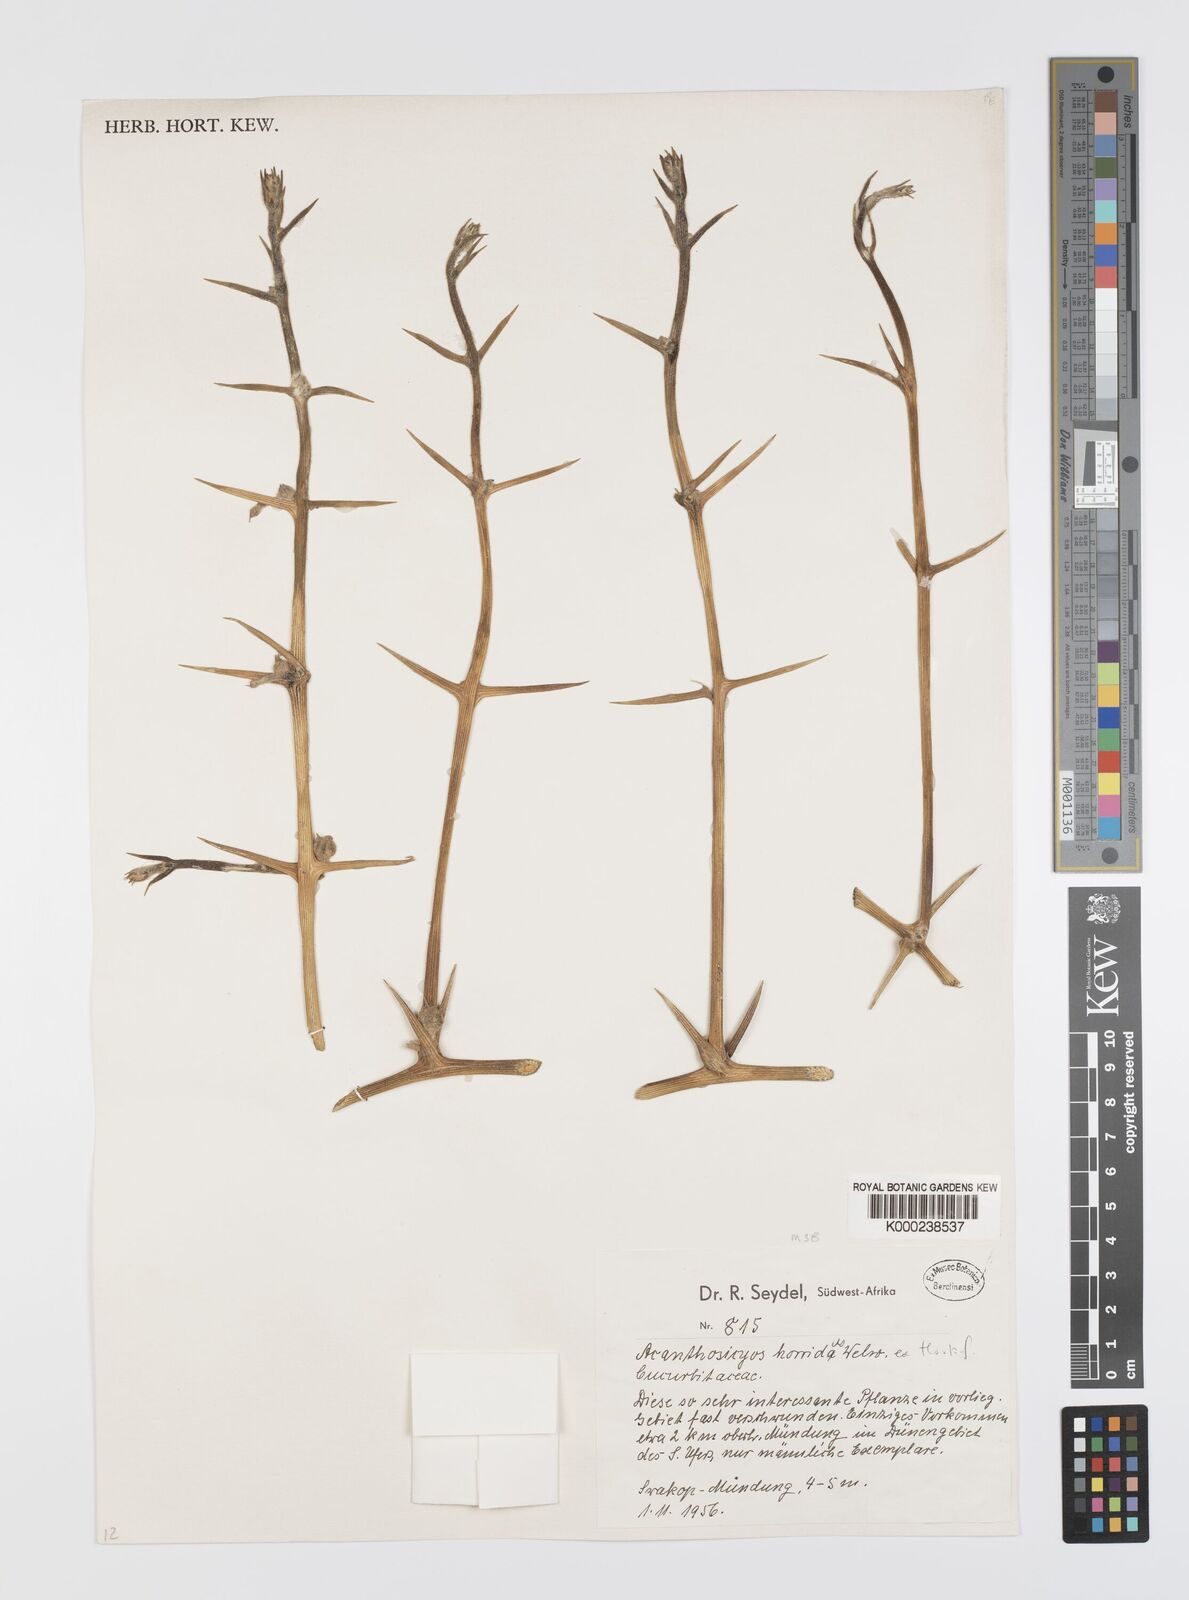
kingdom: Plantae
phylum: Tracheophyta
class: Magnoliopsida
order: Cucurbitales
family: Cucurbitaceae
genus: Acanthosicyos
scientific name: Acanthosicyos horridus
